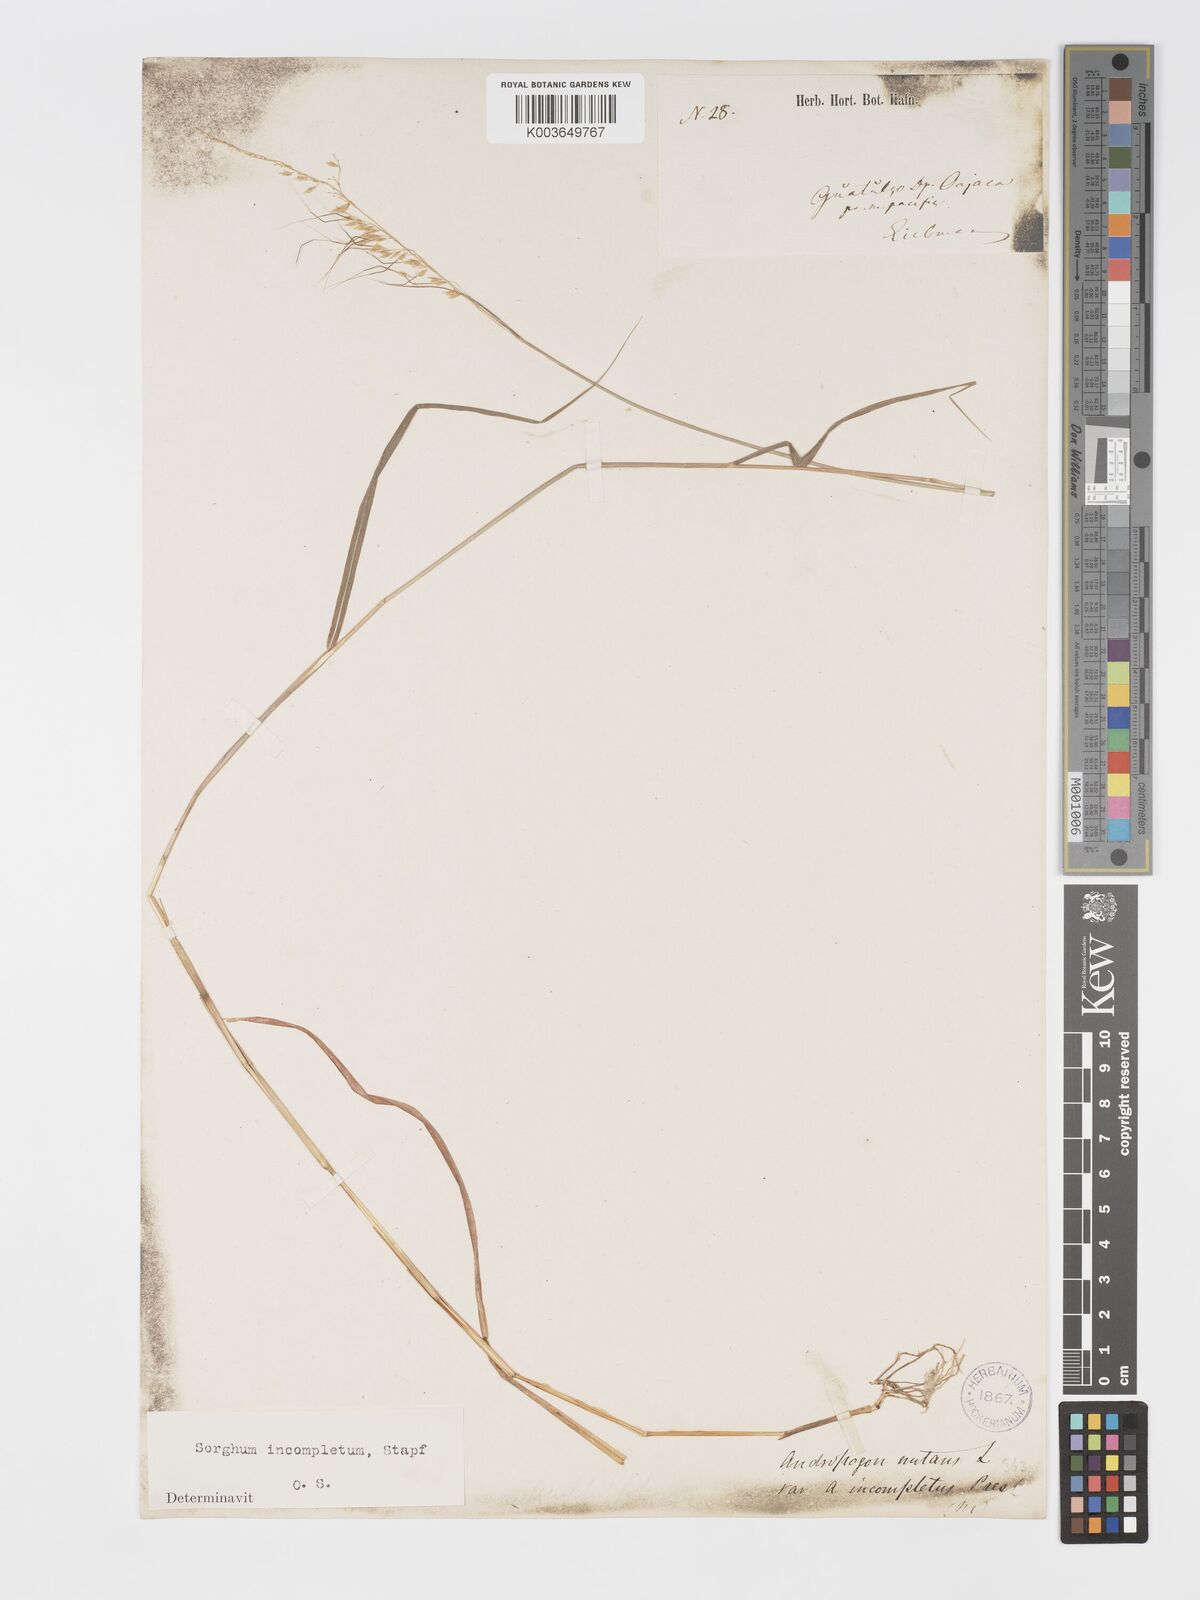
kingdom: Plantae
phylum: Tracheophyta
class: Liliopsida
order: Poales
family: Poaceae
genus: Sorghastrum
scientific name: Sorghastrum incompletum
